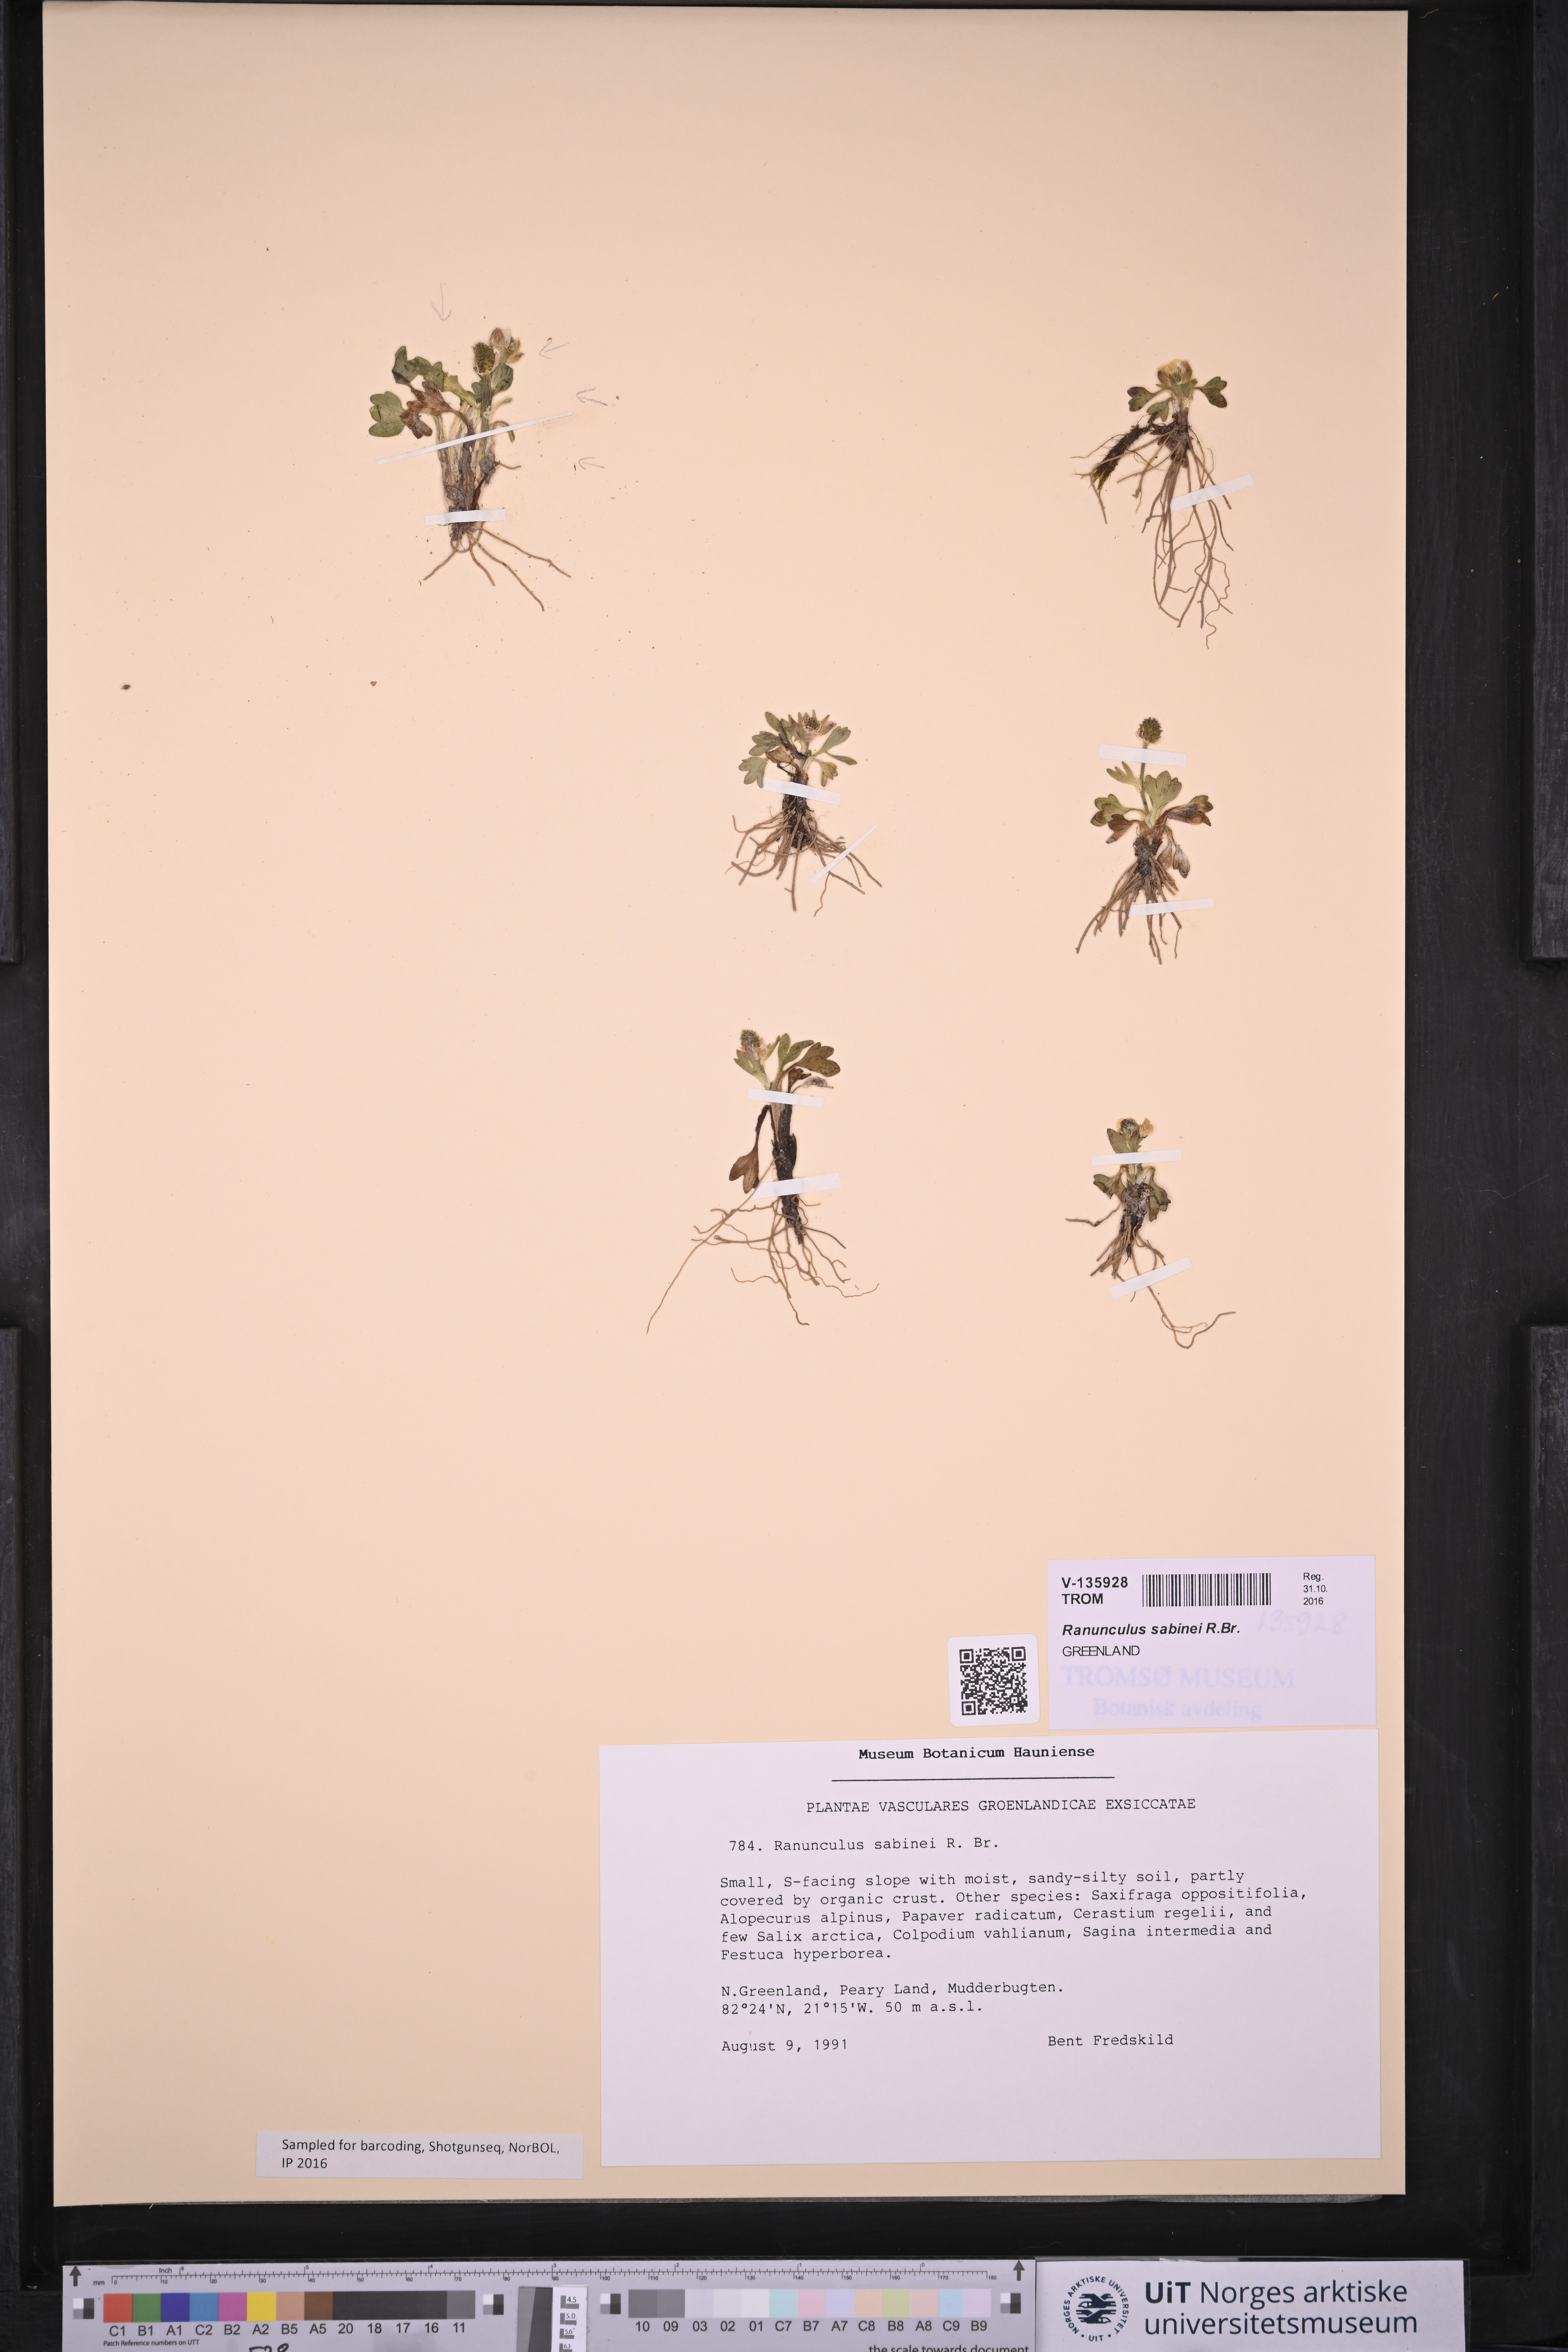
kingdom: Plantae
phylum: Tracheophyta
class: Magnoliopsida
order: Ranunculales
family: Ranunculaceae
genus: Ranunculus
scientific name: Ranunculus sabinei
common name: Sabine's buttercup
